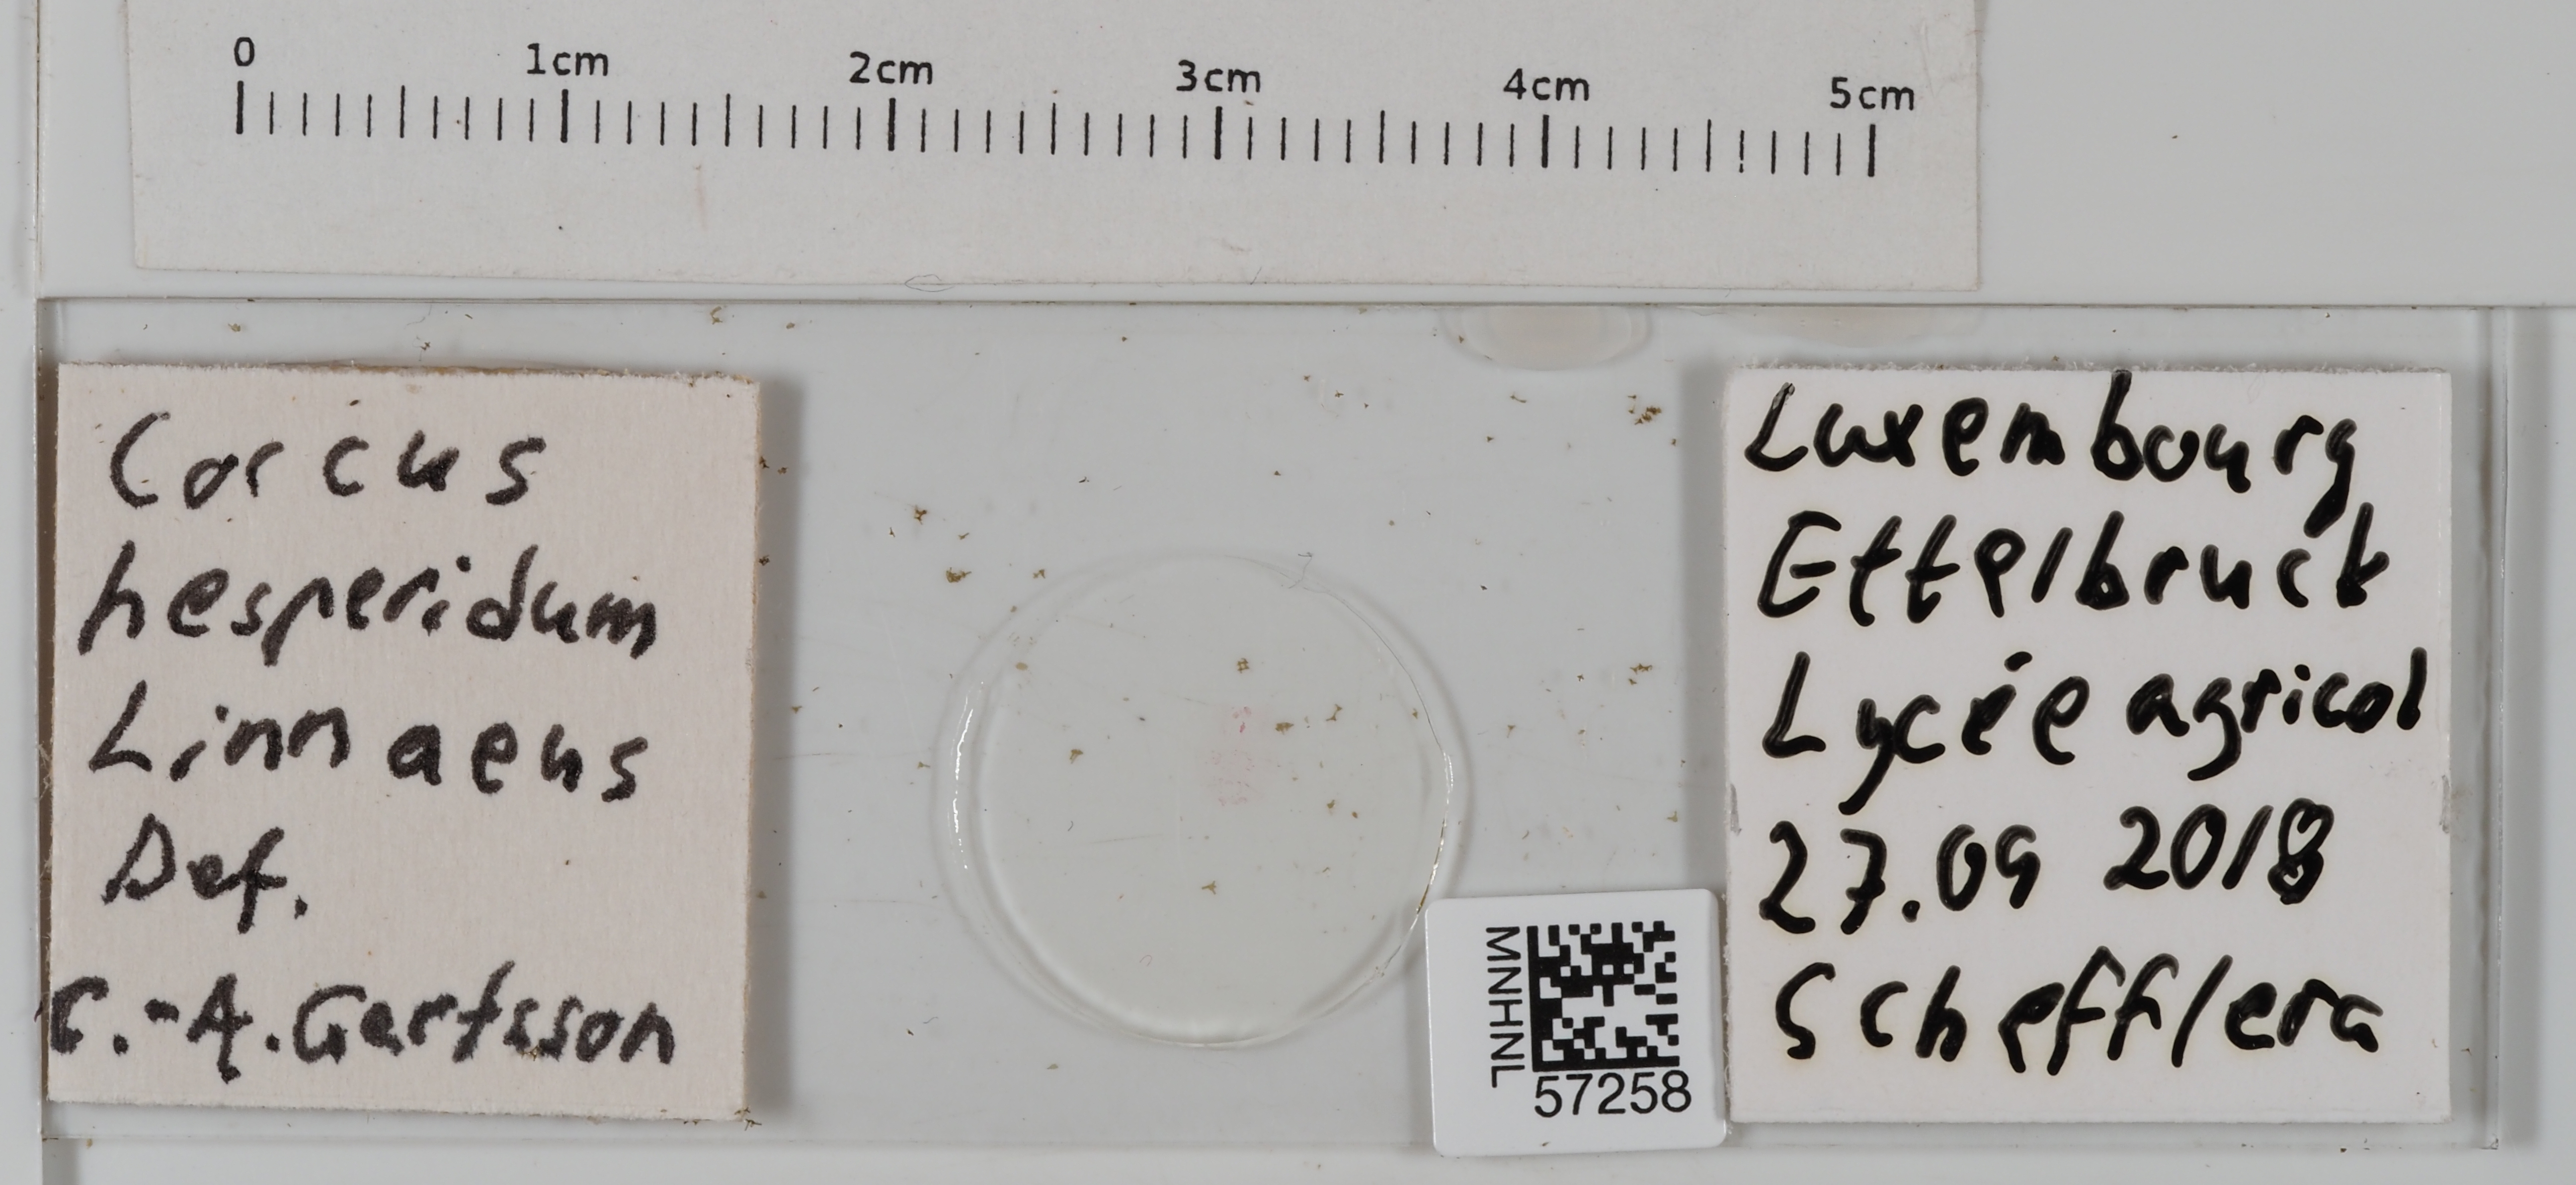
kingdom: Animalia
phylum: Arthropoda
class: Insecta
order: Hemiptera
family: Coccidae
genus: Coccus
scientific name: Coccus hesperidum
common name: Soft brown scale
